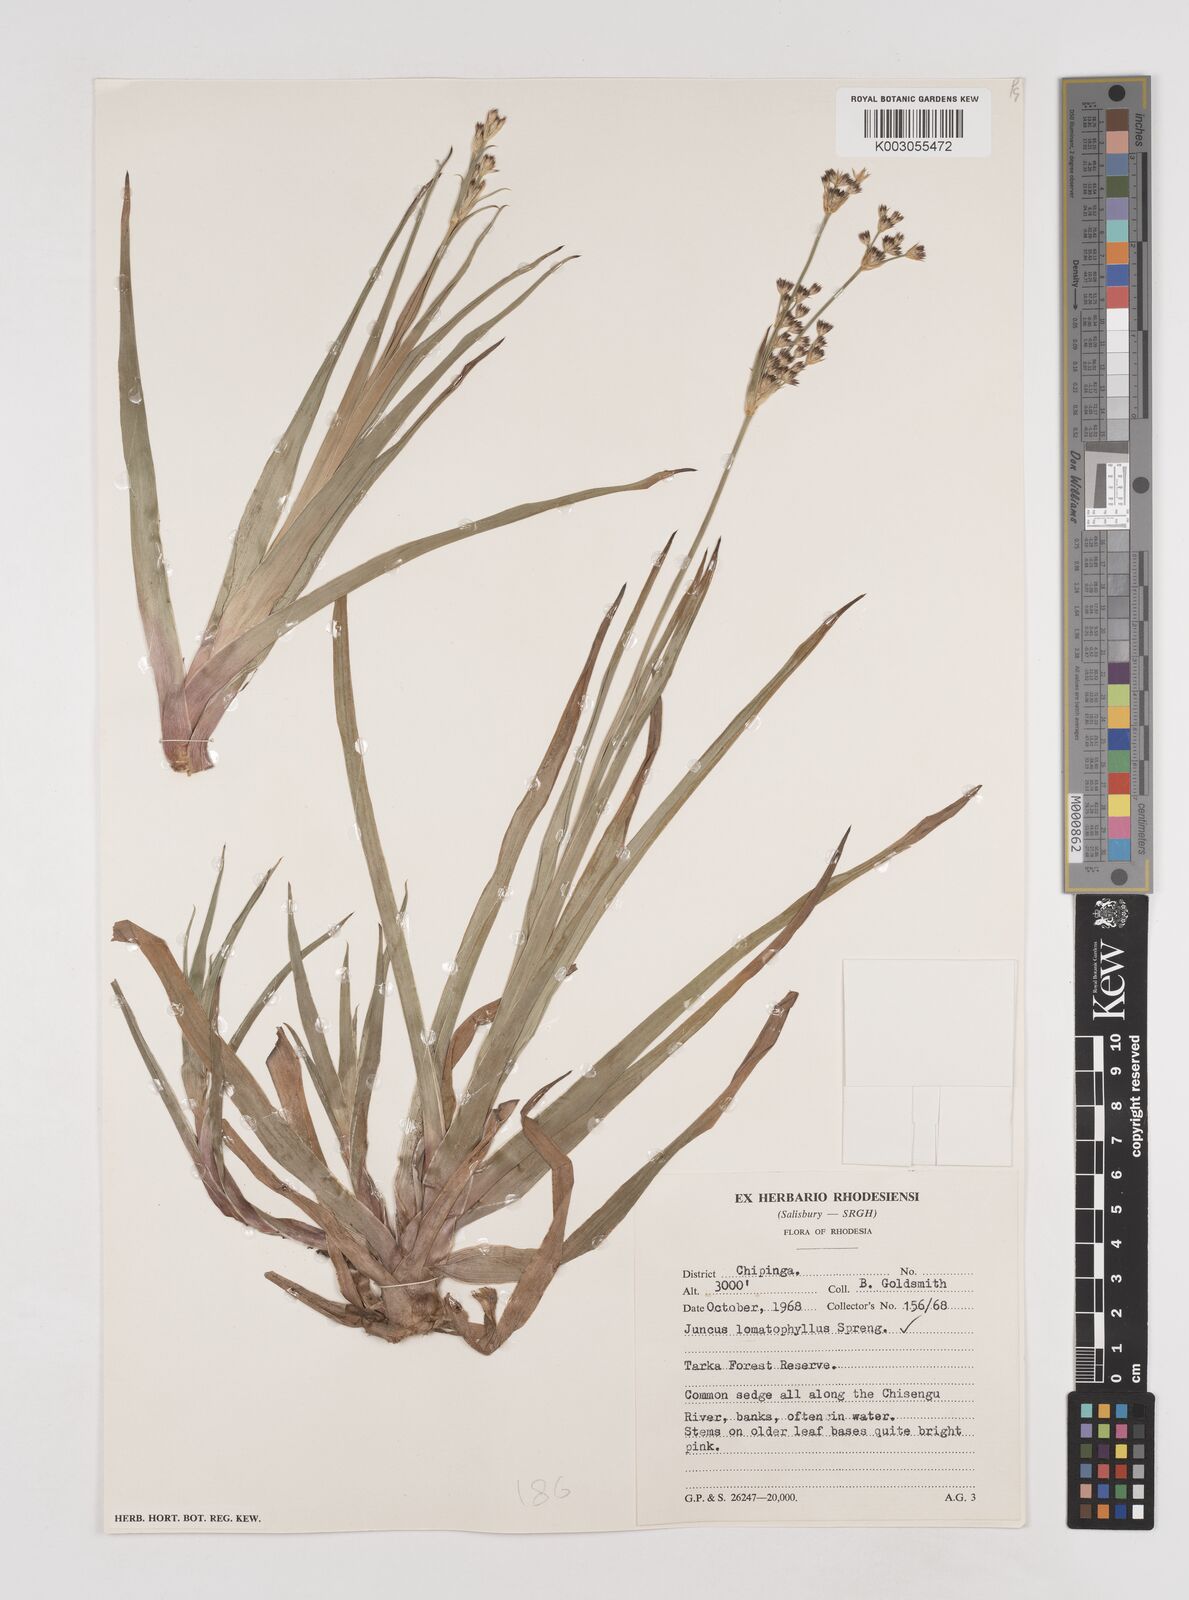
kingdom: Plantae
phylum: Tracheophyta
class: Liliopsida
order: Poales
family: Juncaceae
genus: Juncus
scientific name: Juncus lomatophyllus
